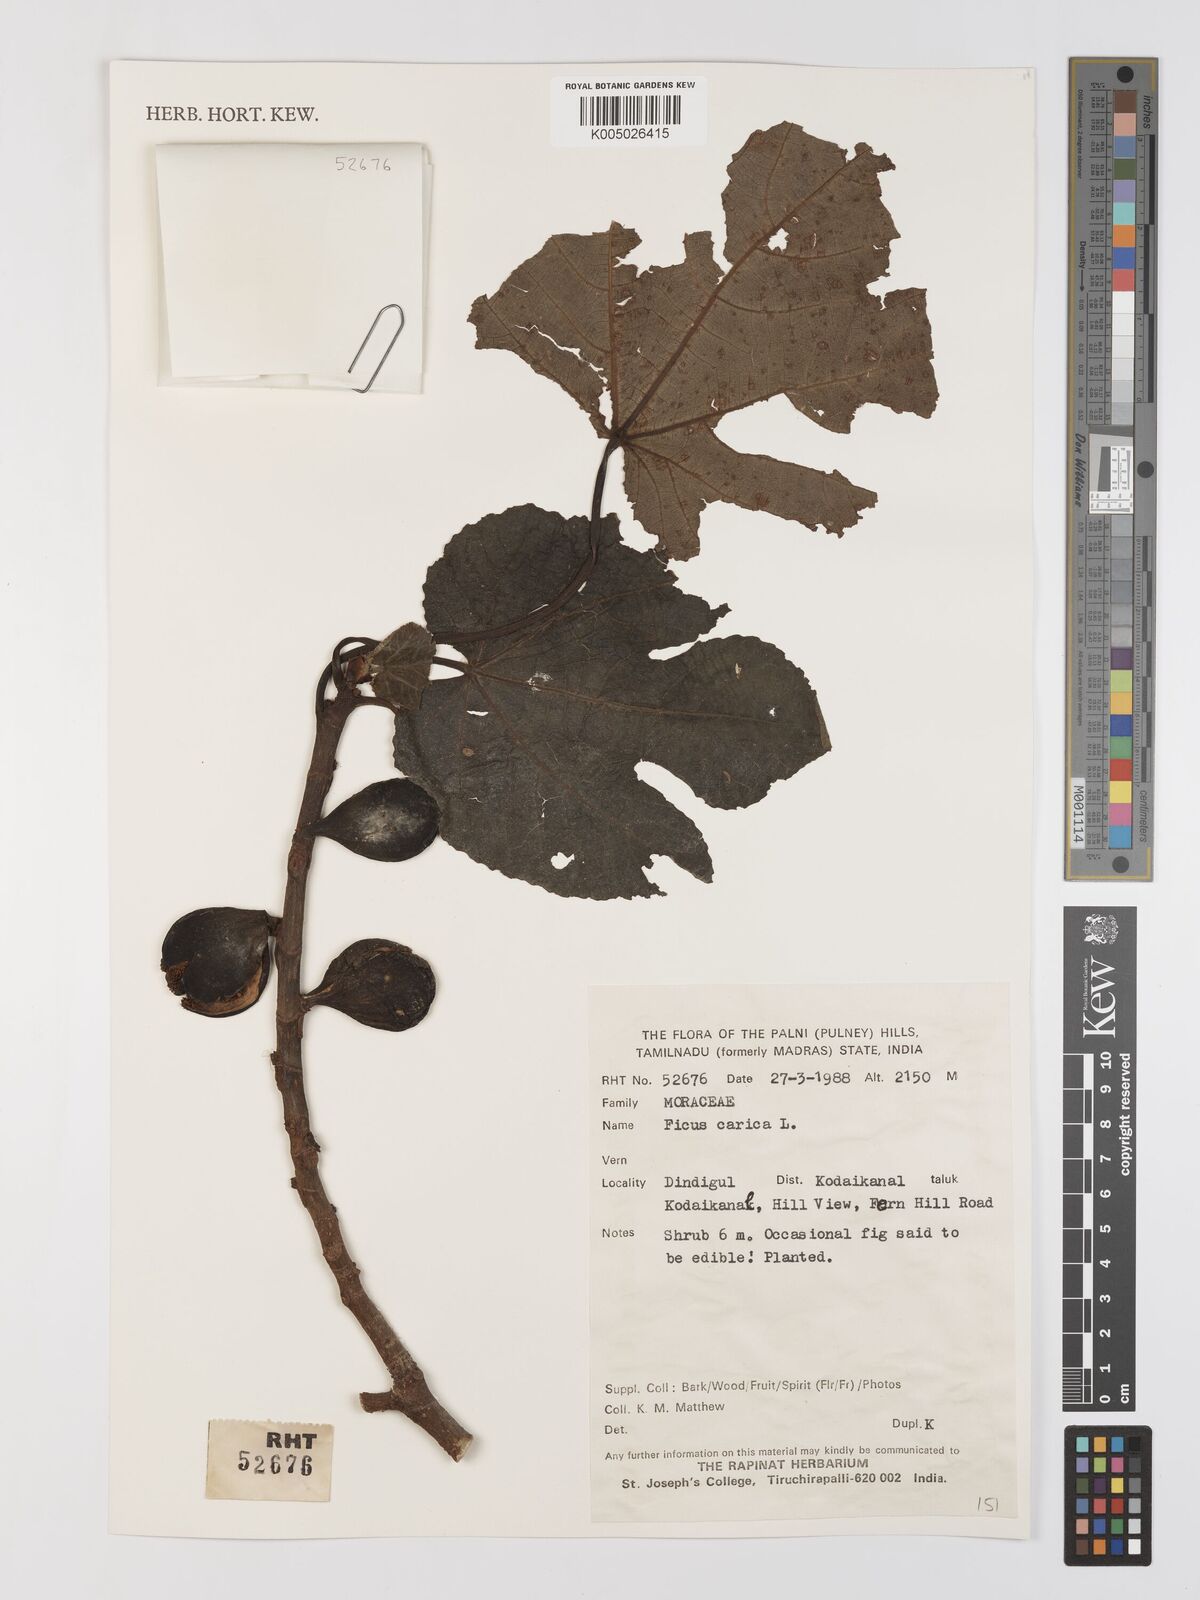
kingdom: Plantae
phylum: Tracheophyta
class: Magnoliopsida
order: Rosales
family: Moraceae
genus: Ficus
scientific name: Ficus carica
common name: Fig
